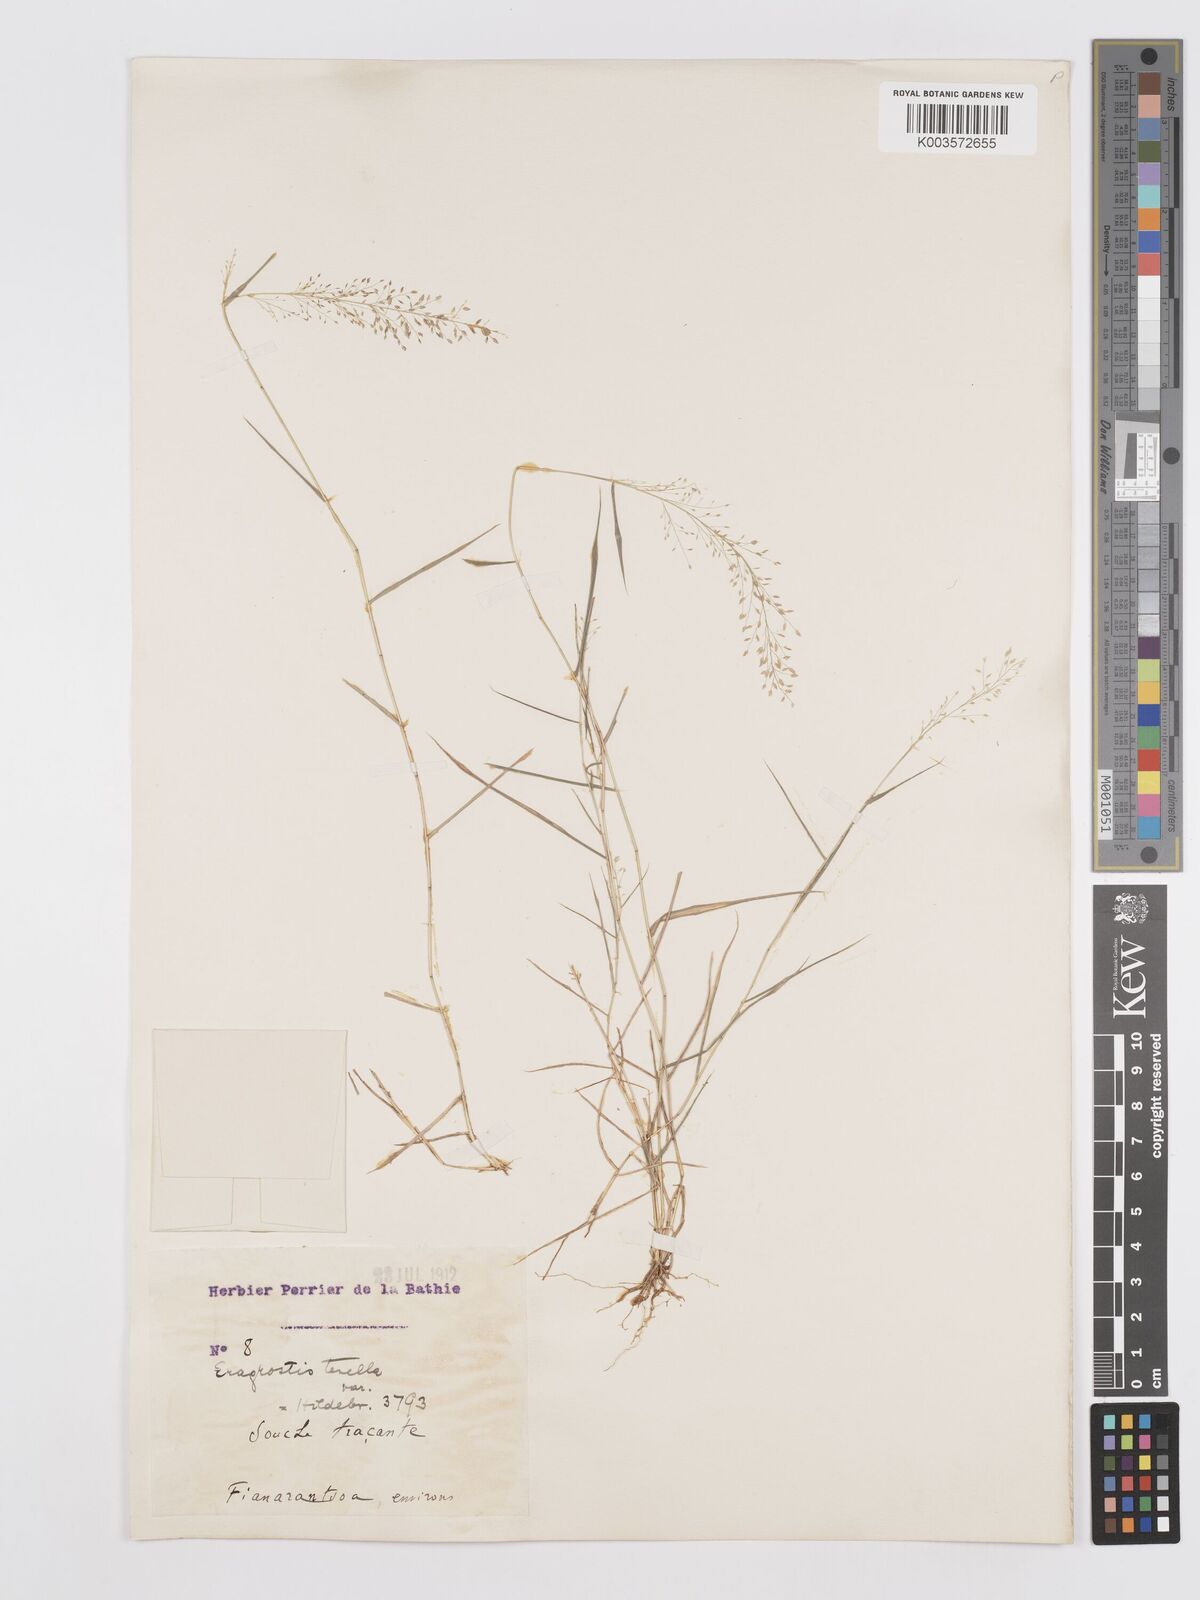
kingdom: Plantae
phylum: Tracheophyta
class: Liliopsida
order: Poales
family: Poaceae
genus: Eragrostis
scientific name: Eragrostis tenella
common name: Japanese lovegrass
